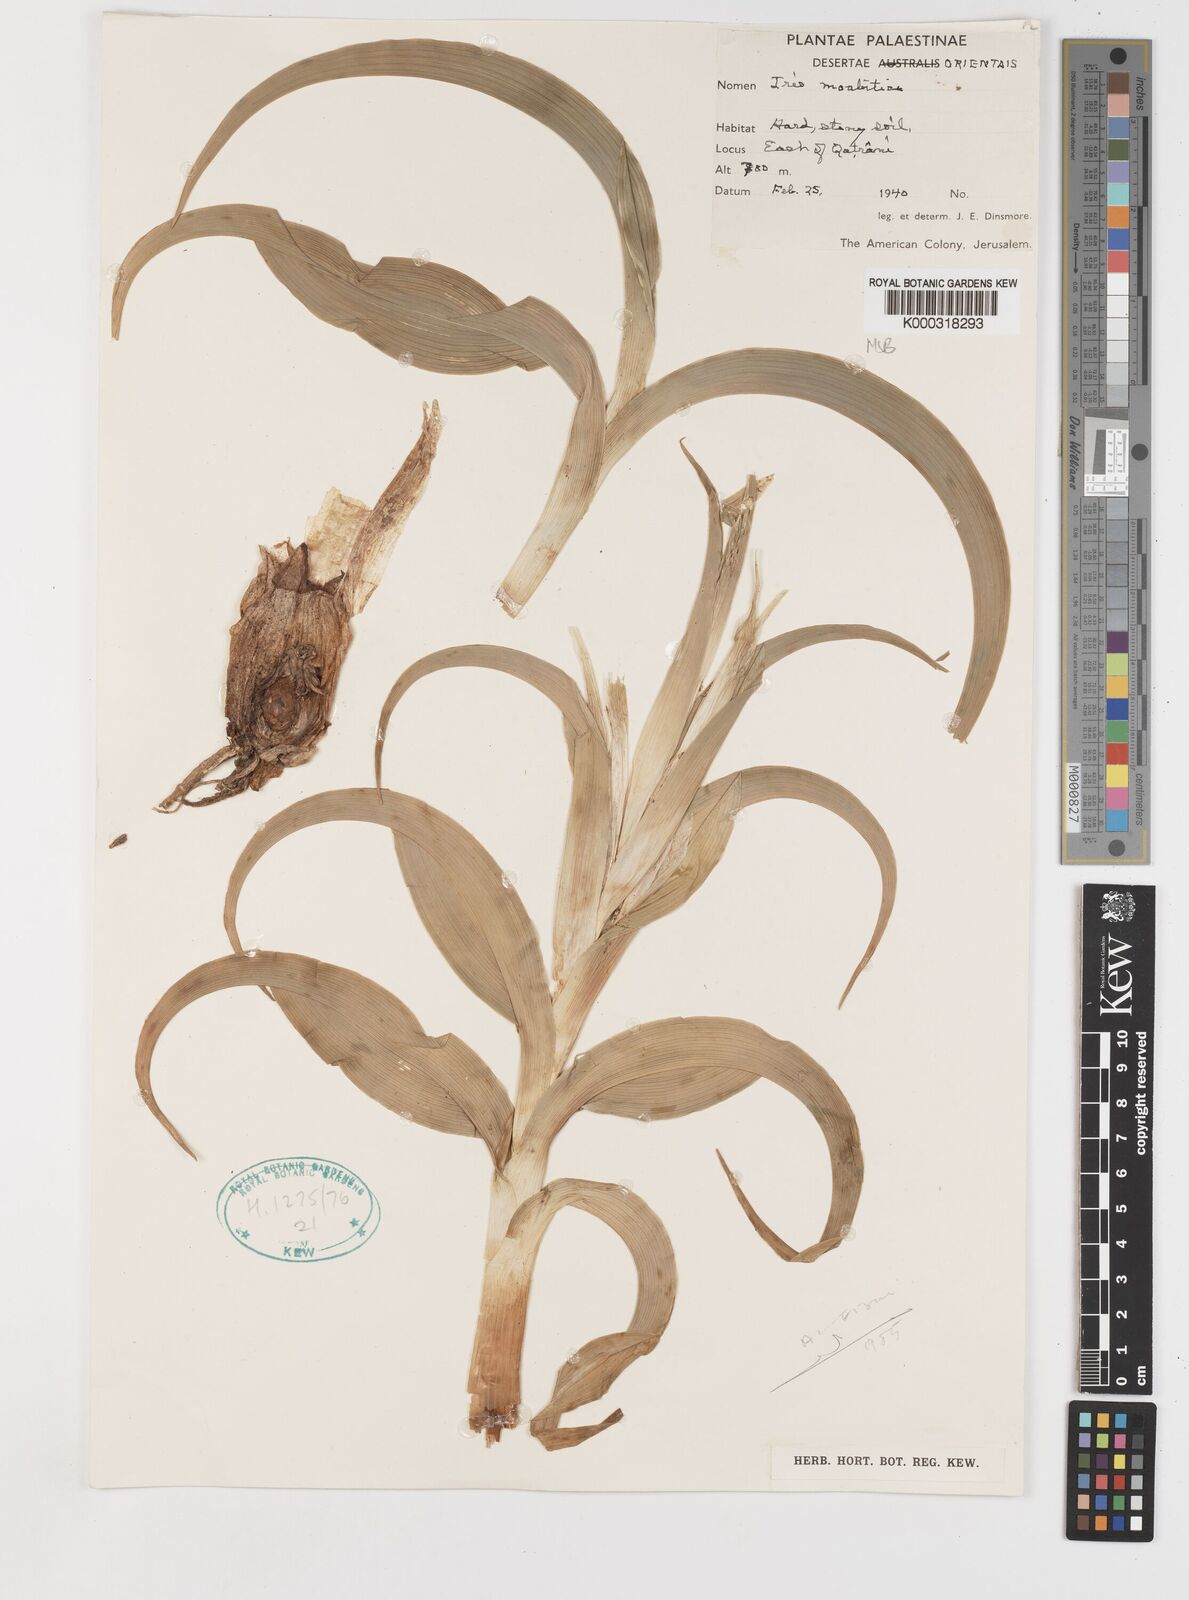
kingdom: Plantae
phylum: Tracheophyta
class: Liliopsida
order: Asparagales
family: Iridaceae
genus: Iris
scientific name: Iris aucheri
